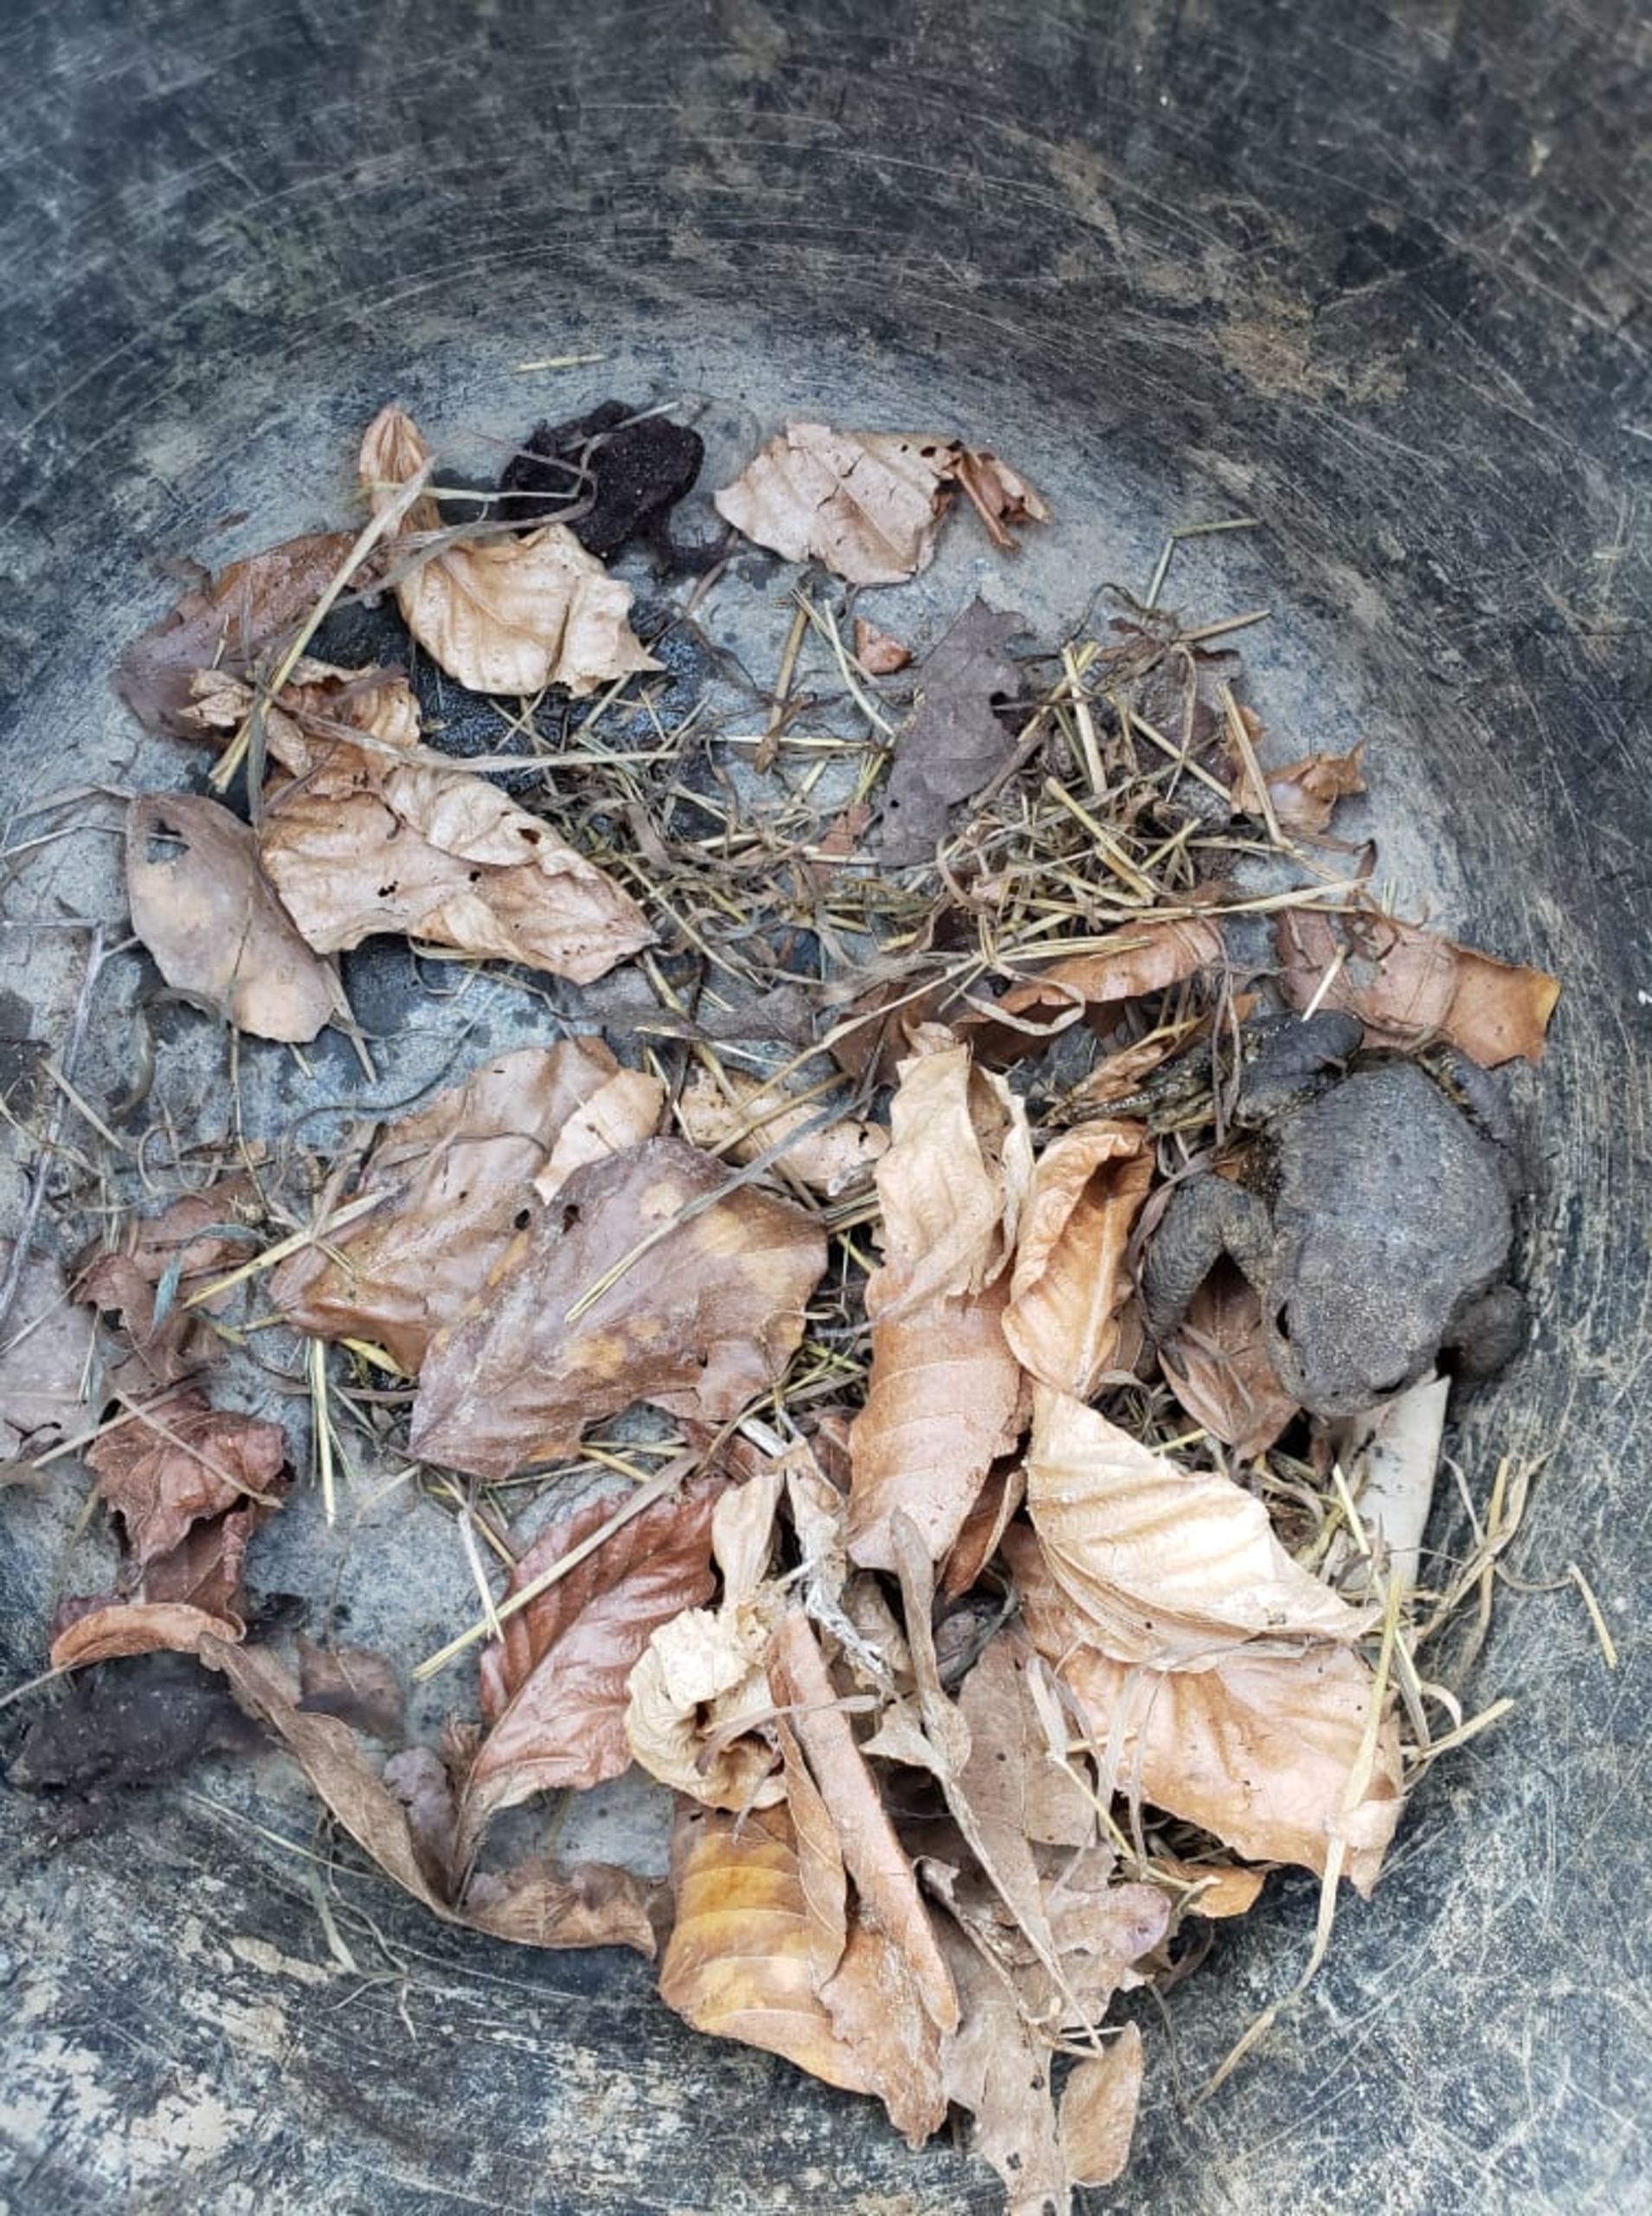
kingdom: Animalia
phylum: Chordata
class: Amphibia
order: Anura
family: Bufonidae
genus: Bufo
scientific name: Bufo bufo
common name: Skrubtudse
